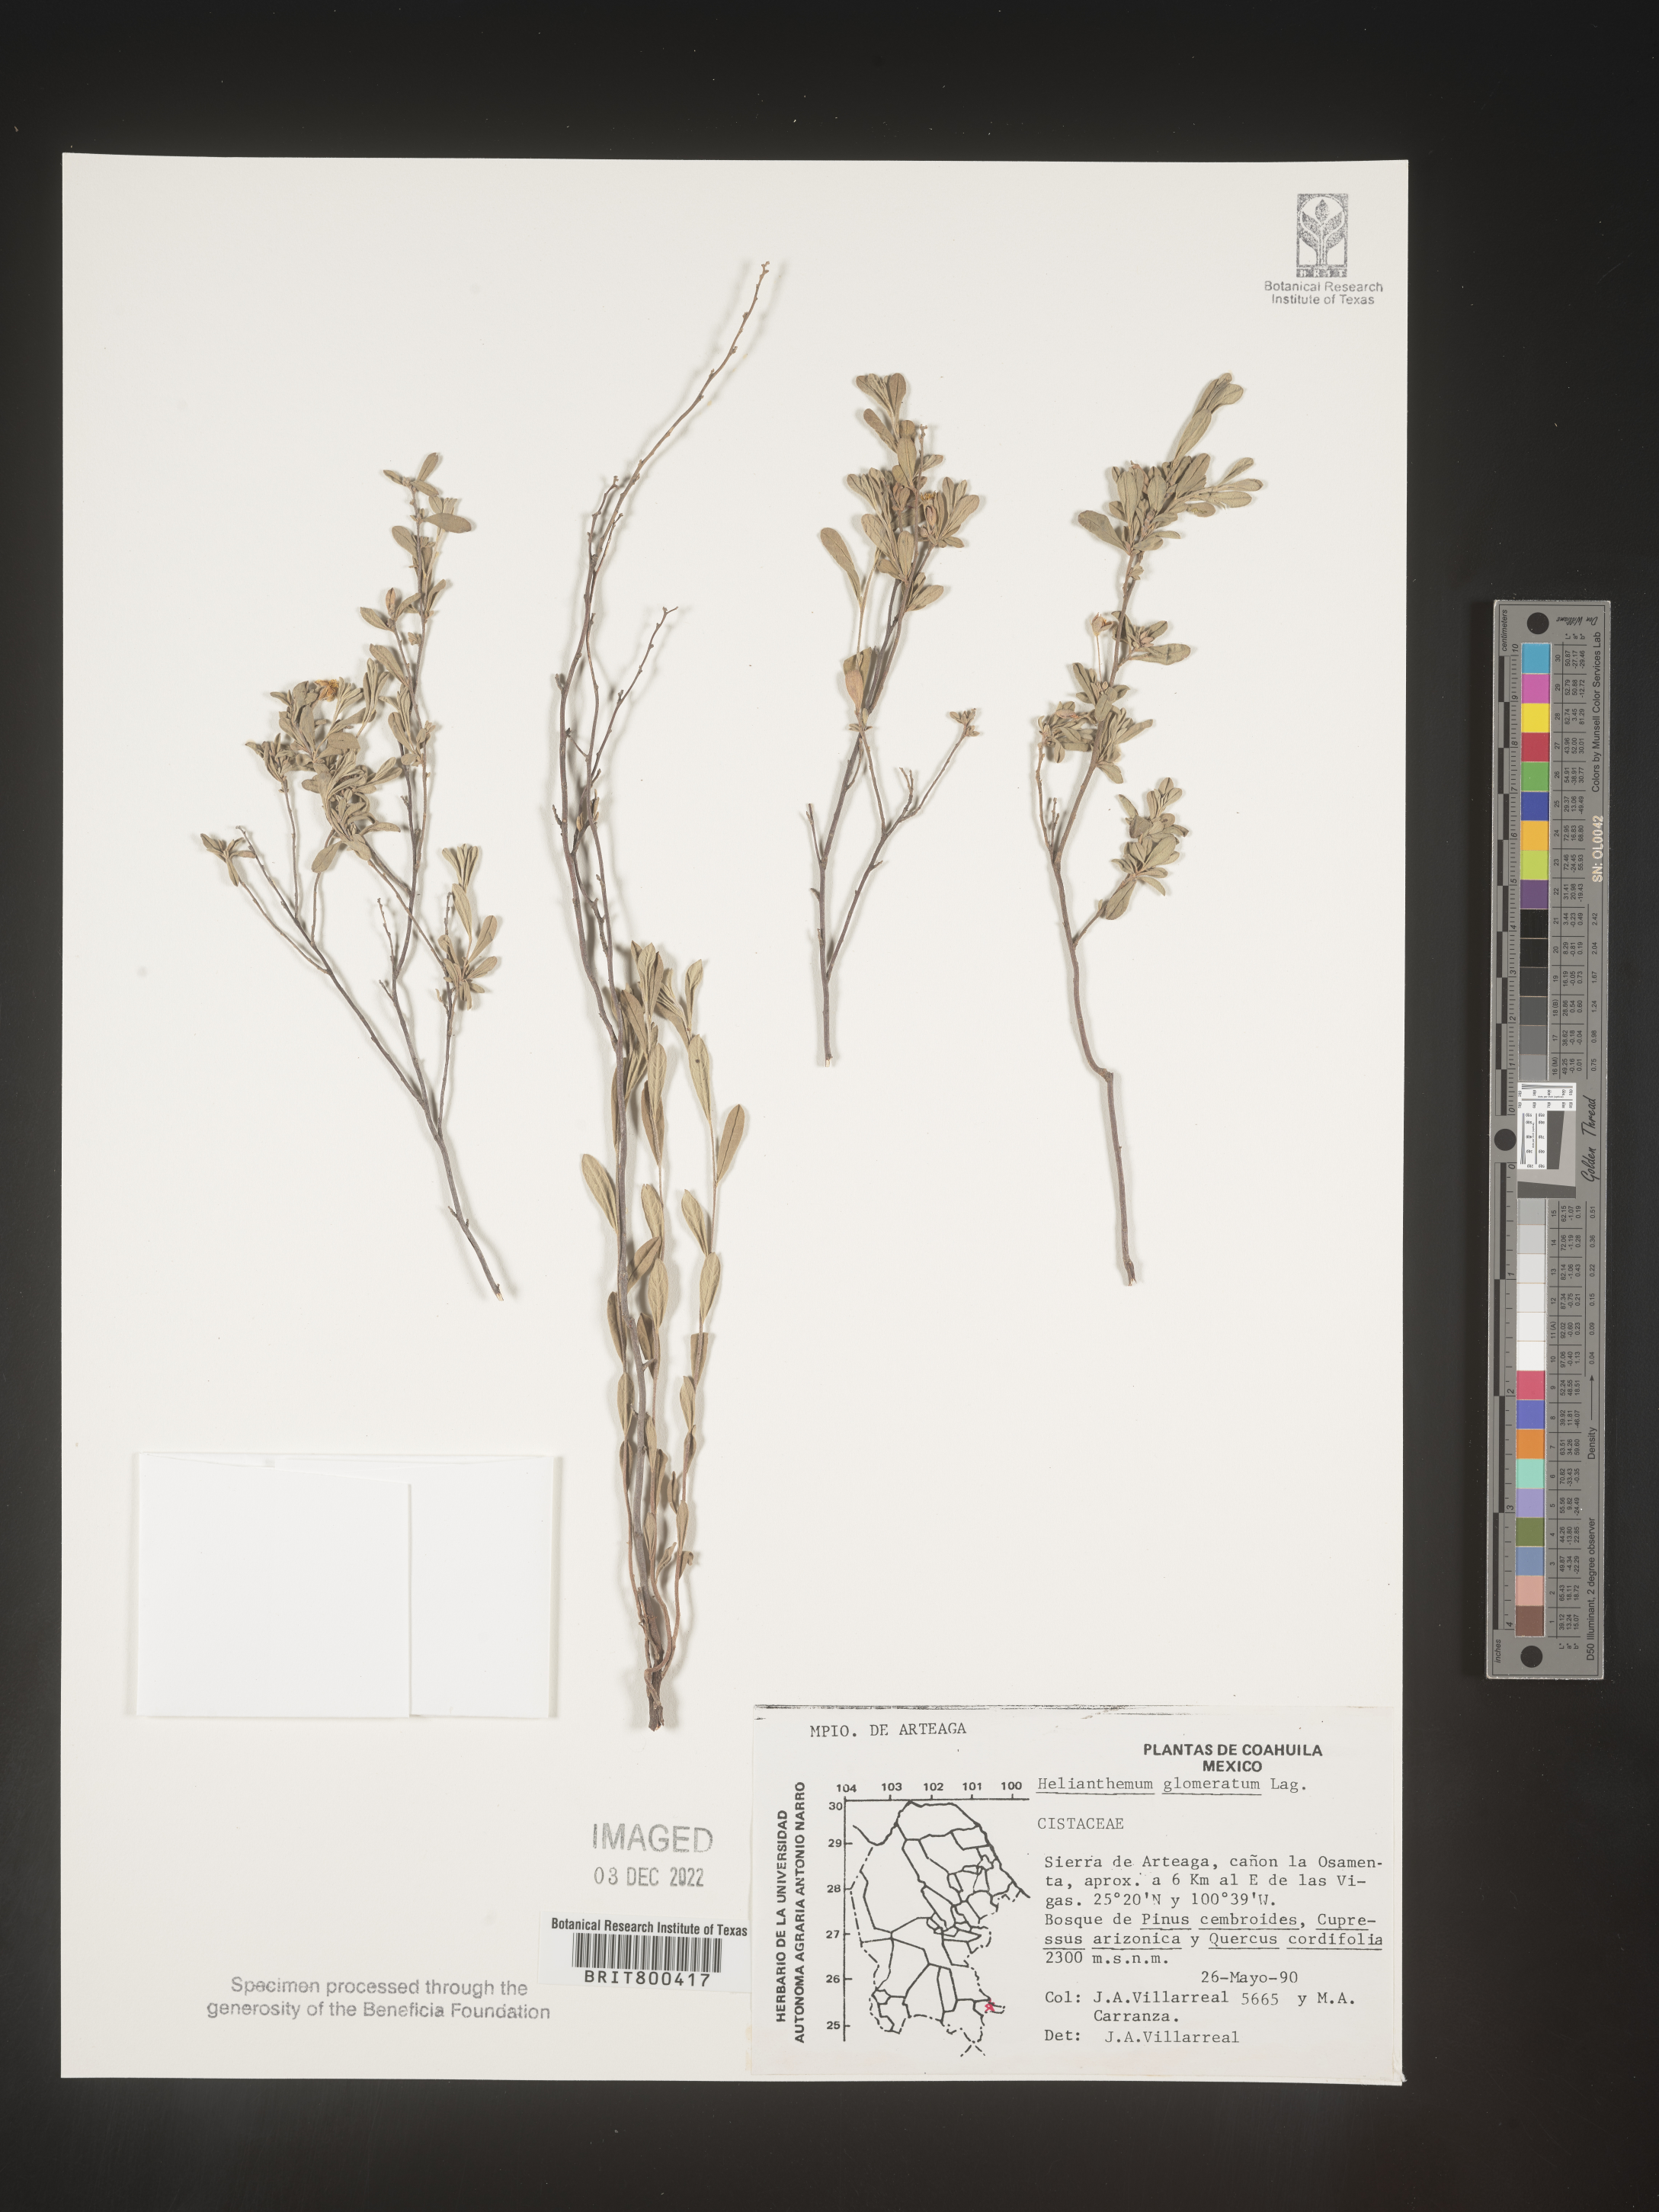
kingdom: Plantae
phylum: Tracheophyta
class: Magnoliopsida
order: Malvales
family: Cistaceae
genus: Helianthemum
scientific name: Helianthemum
